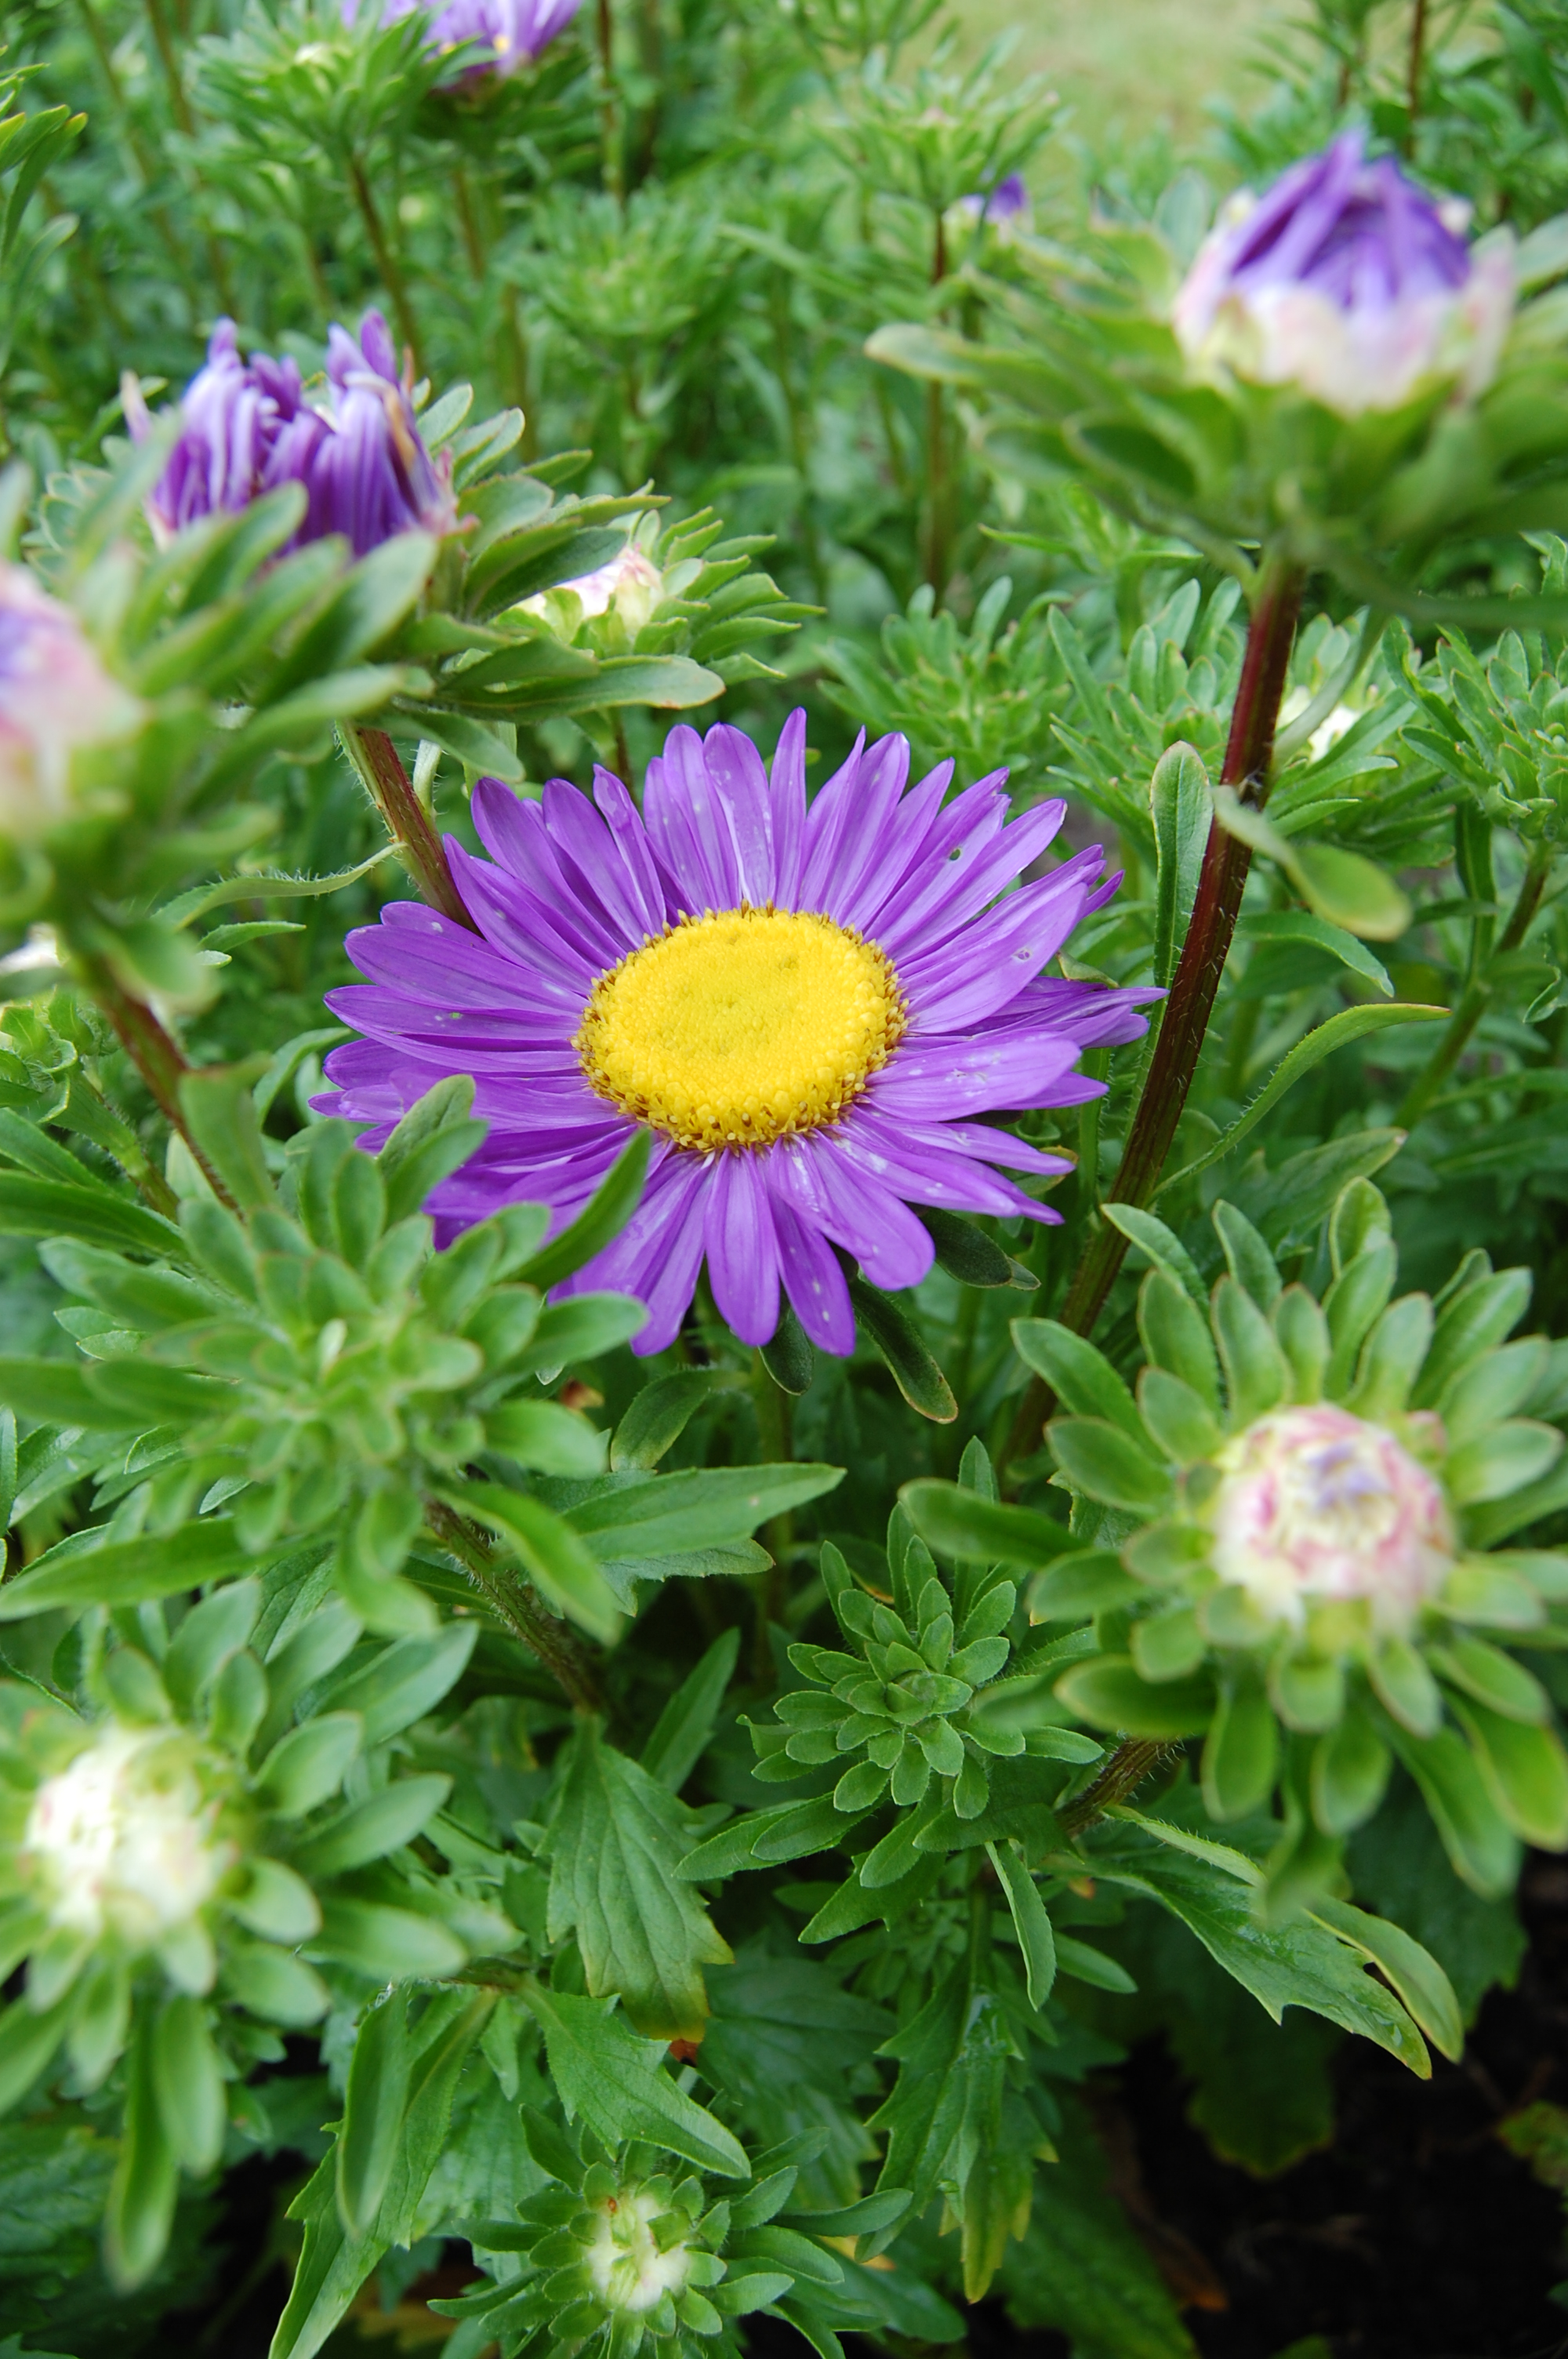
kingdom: Plantae
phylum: Tracheophyta
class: Magnoliopsida
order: Asterales
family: Asteraceae
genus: Callistephus
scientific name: Callistephus chinensis
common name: China aster
